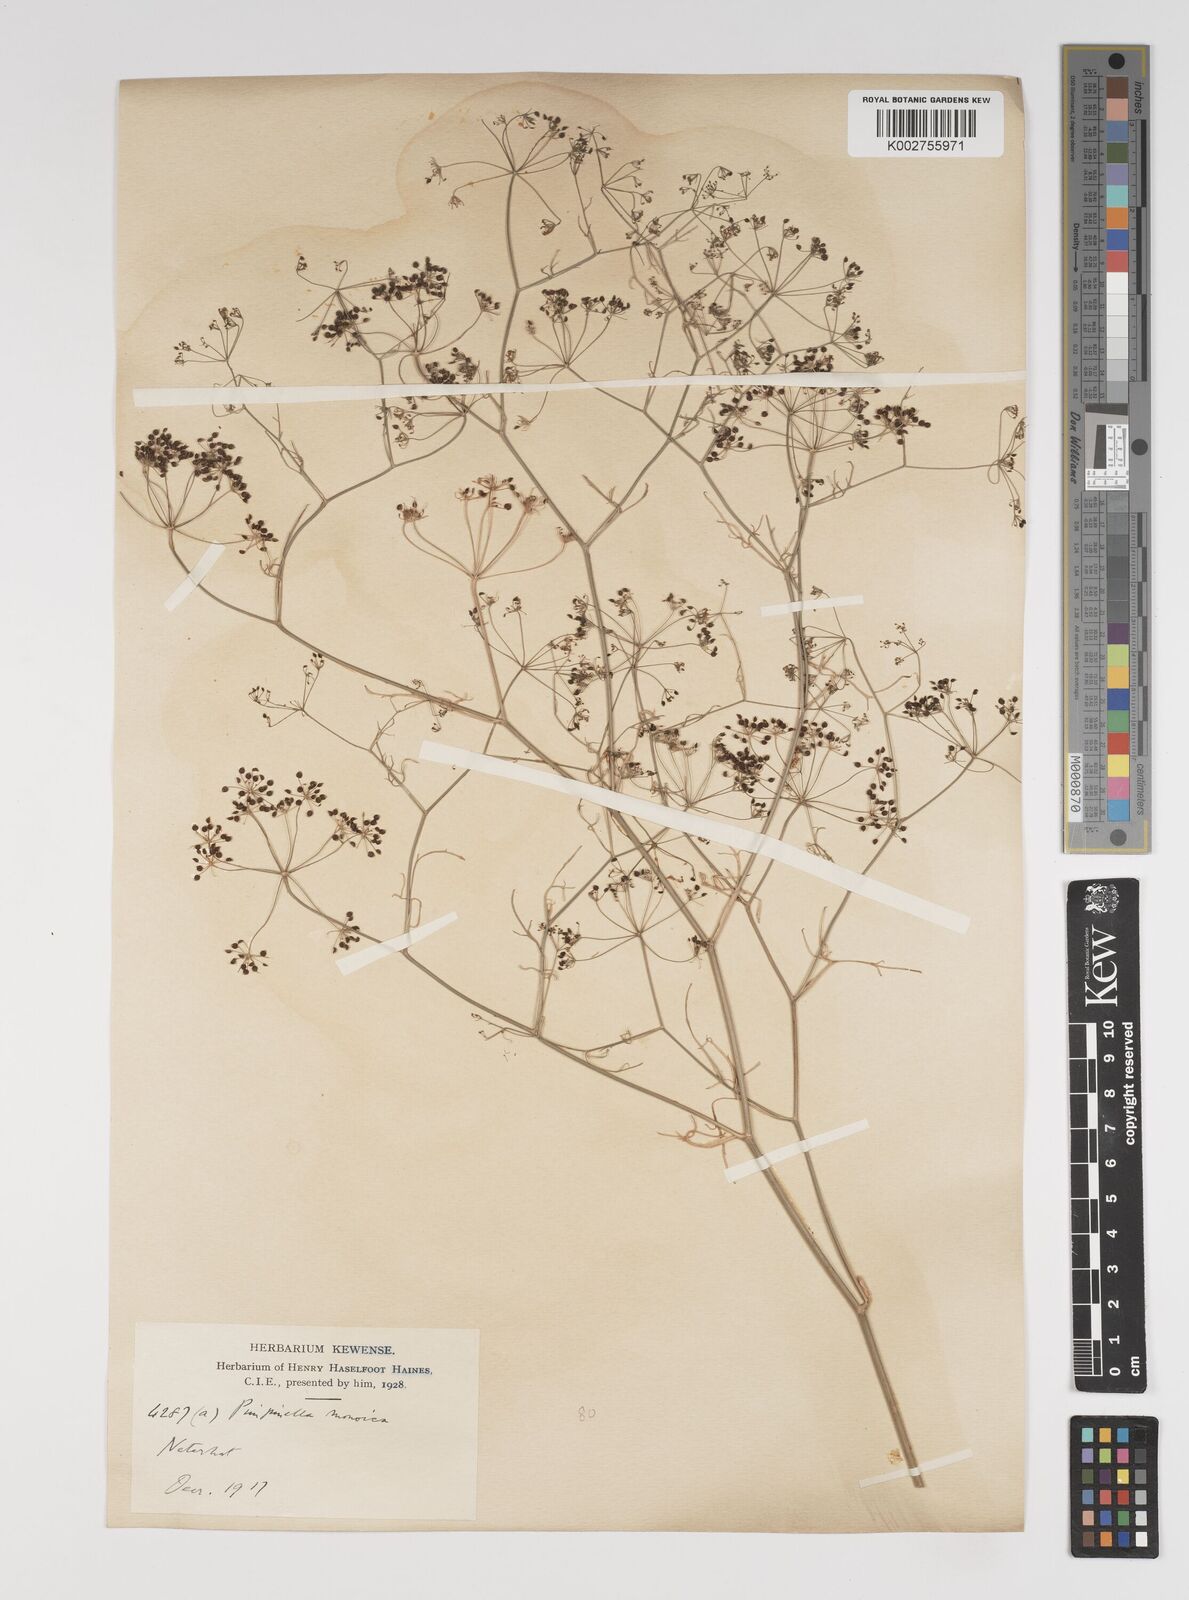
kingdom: Plantae
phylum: Tracheophyta
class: Magnoliopsida
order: Apiales
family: Apiaceae
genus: Pimpinella
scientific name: Pimpinella wallichiana
